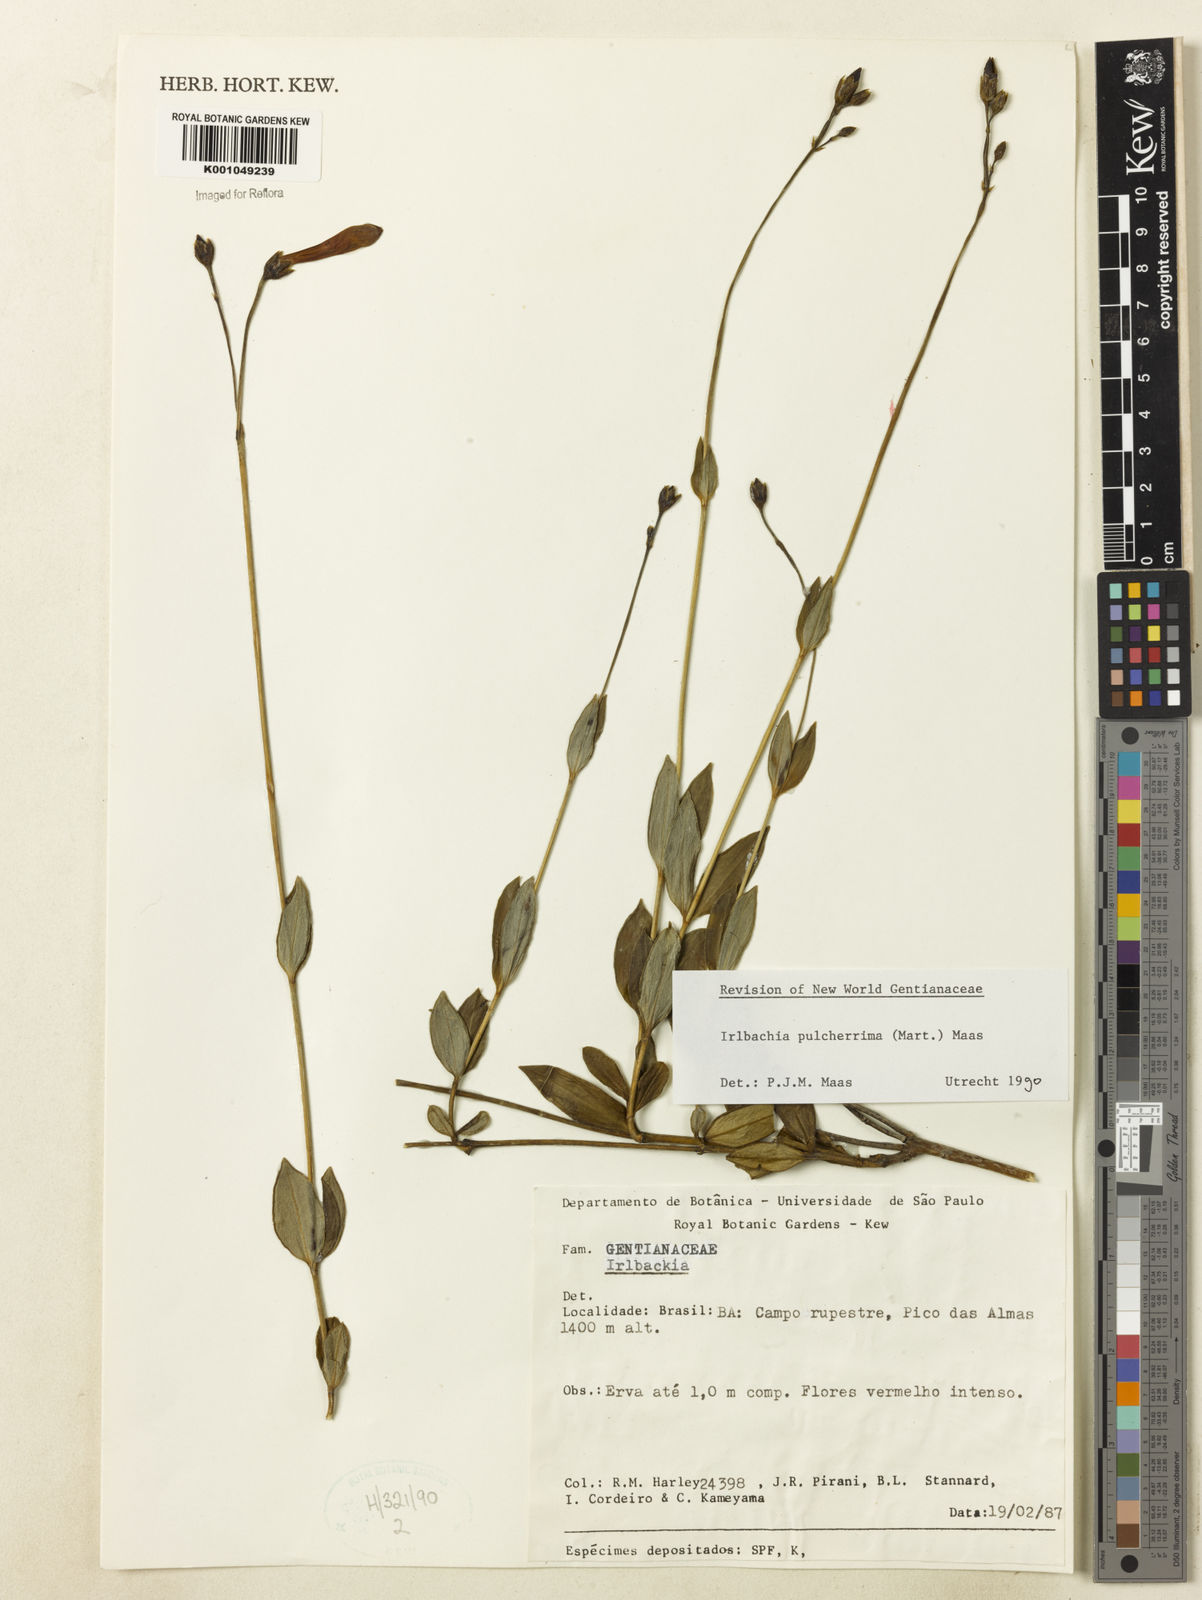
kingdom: Plantae
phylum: Tracheophyta
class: Magnoliopsida
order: Gentianales
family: Gentianaceae
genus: Calolisianthus
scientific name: Calolisianthus pulcherrimus
